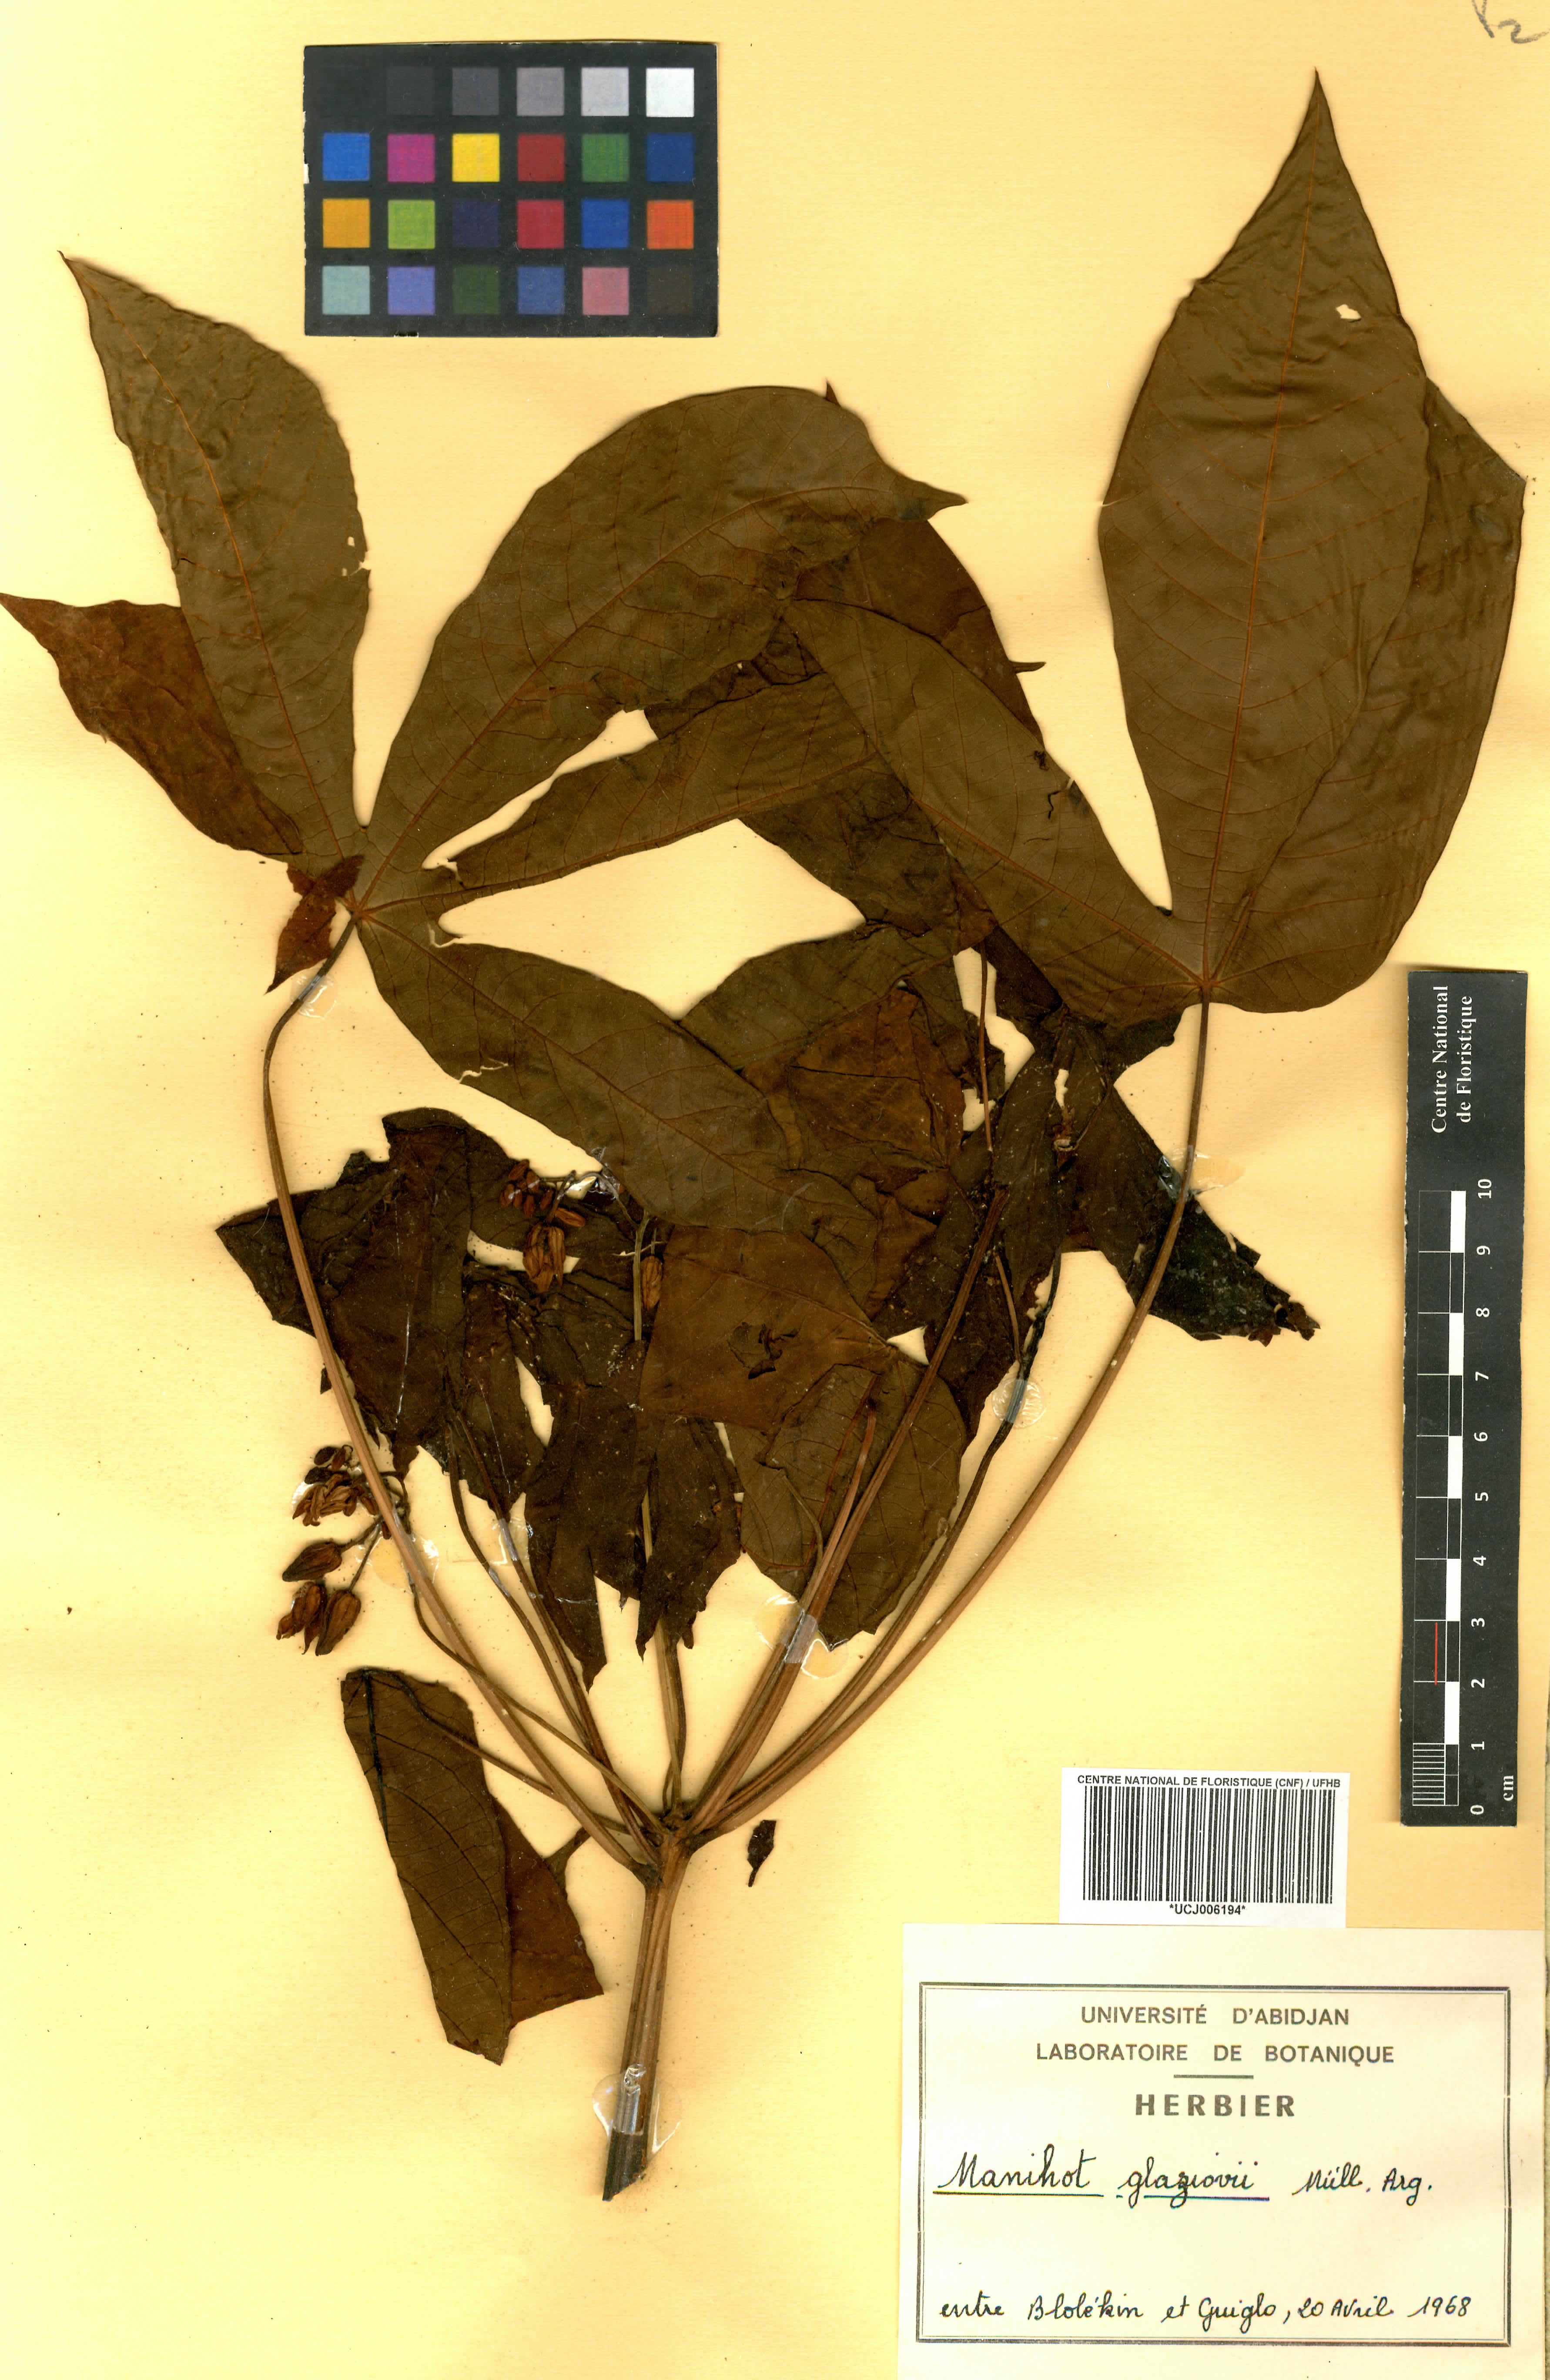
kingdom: Plantae
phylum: Tracheophyta
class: Magnoliopsida
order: Malpighiales
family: Euphorbiaceae
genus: Manihot
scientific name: Manihot carthagenensis
